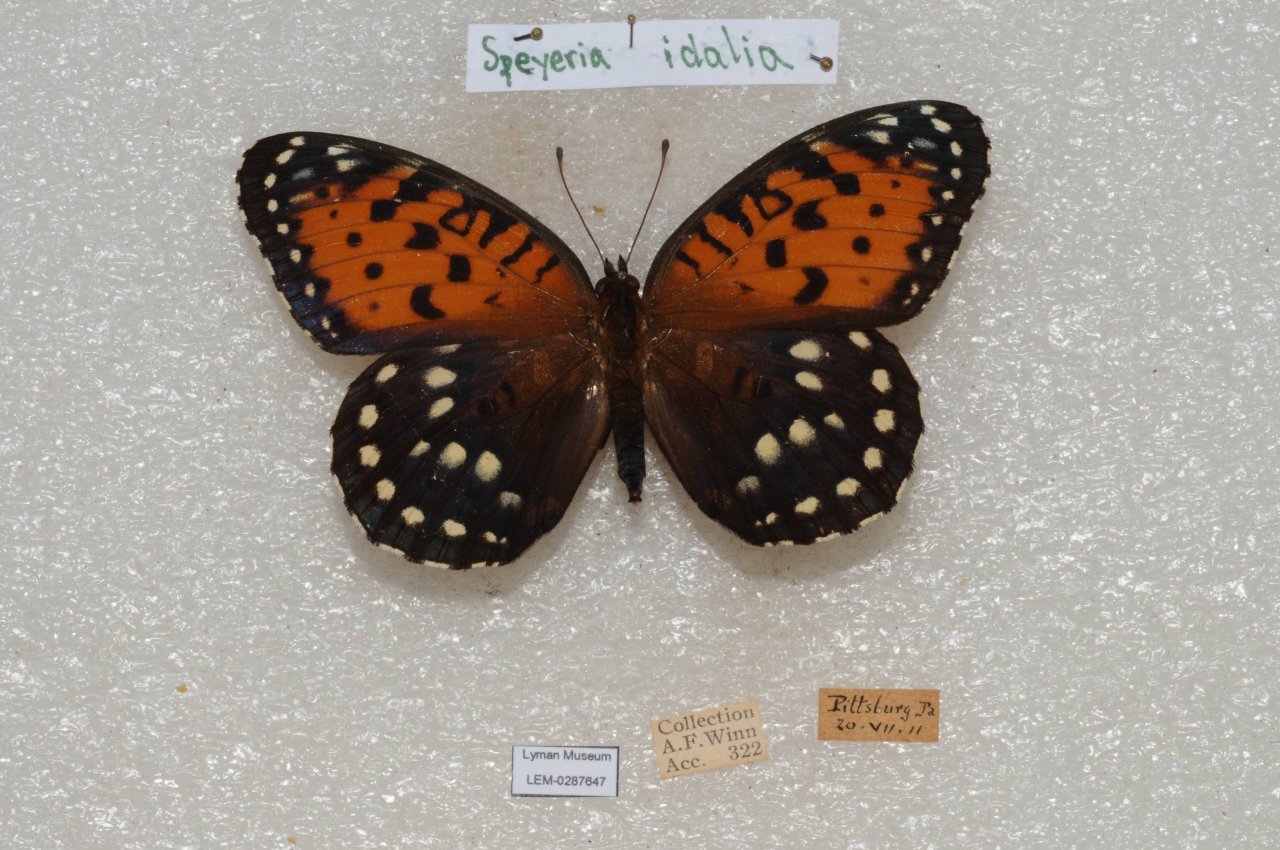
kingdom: Animalia
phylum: Arthropoda
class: Insecta
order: Lepidoptera
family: Nymphalidae
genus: Speyeria
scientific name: Speyeria idalia
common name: Regal Fritillary
